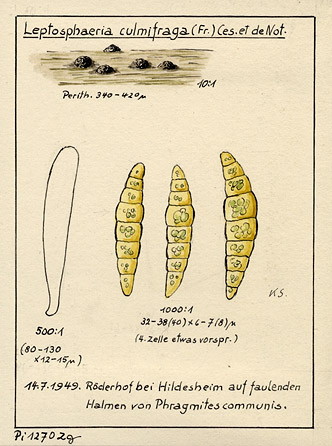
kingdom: Plantae
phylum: Tracheophyta
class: Liliopsida
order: Poales
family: Poaceae
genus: Phragmites
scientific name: Phragmites australis
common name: Common reed
